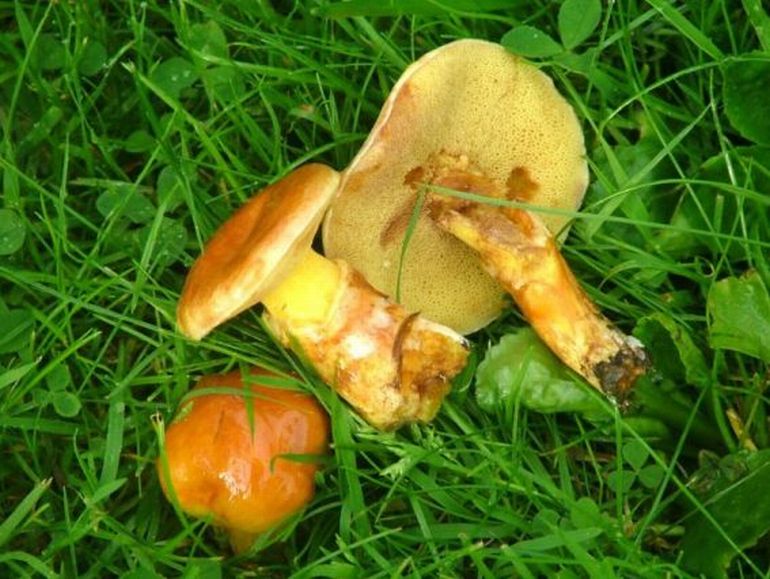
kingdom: Fungi
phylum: Basidiomycota
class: Agaricomycetes
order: Boletales
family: Suillaceae
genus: Suillus
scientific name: Suillus grevillei
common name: lærke-slimrørhat
